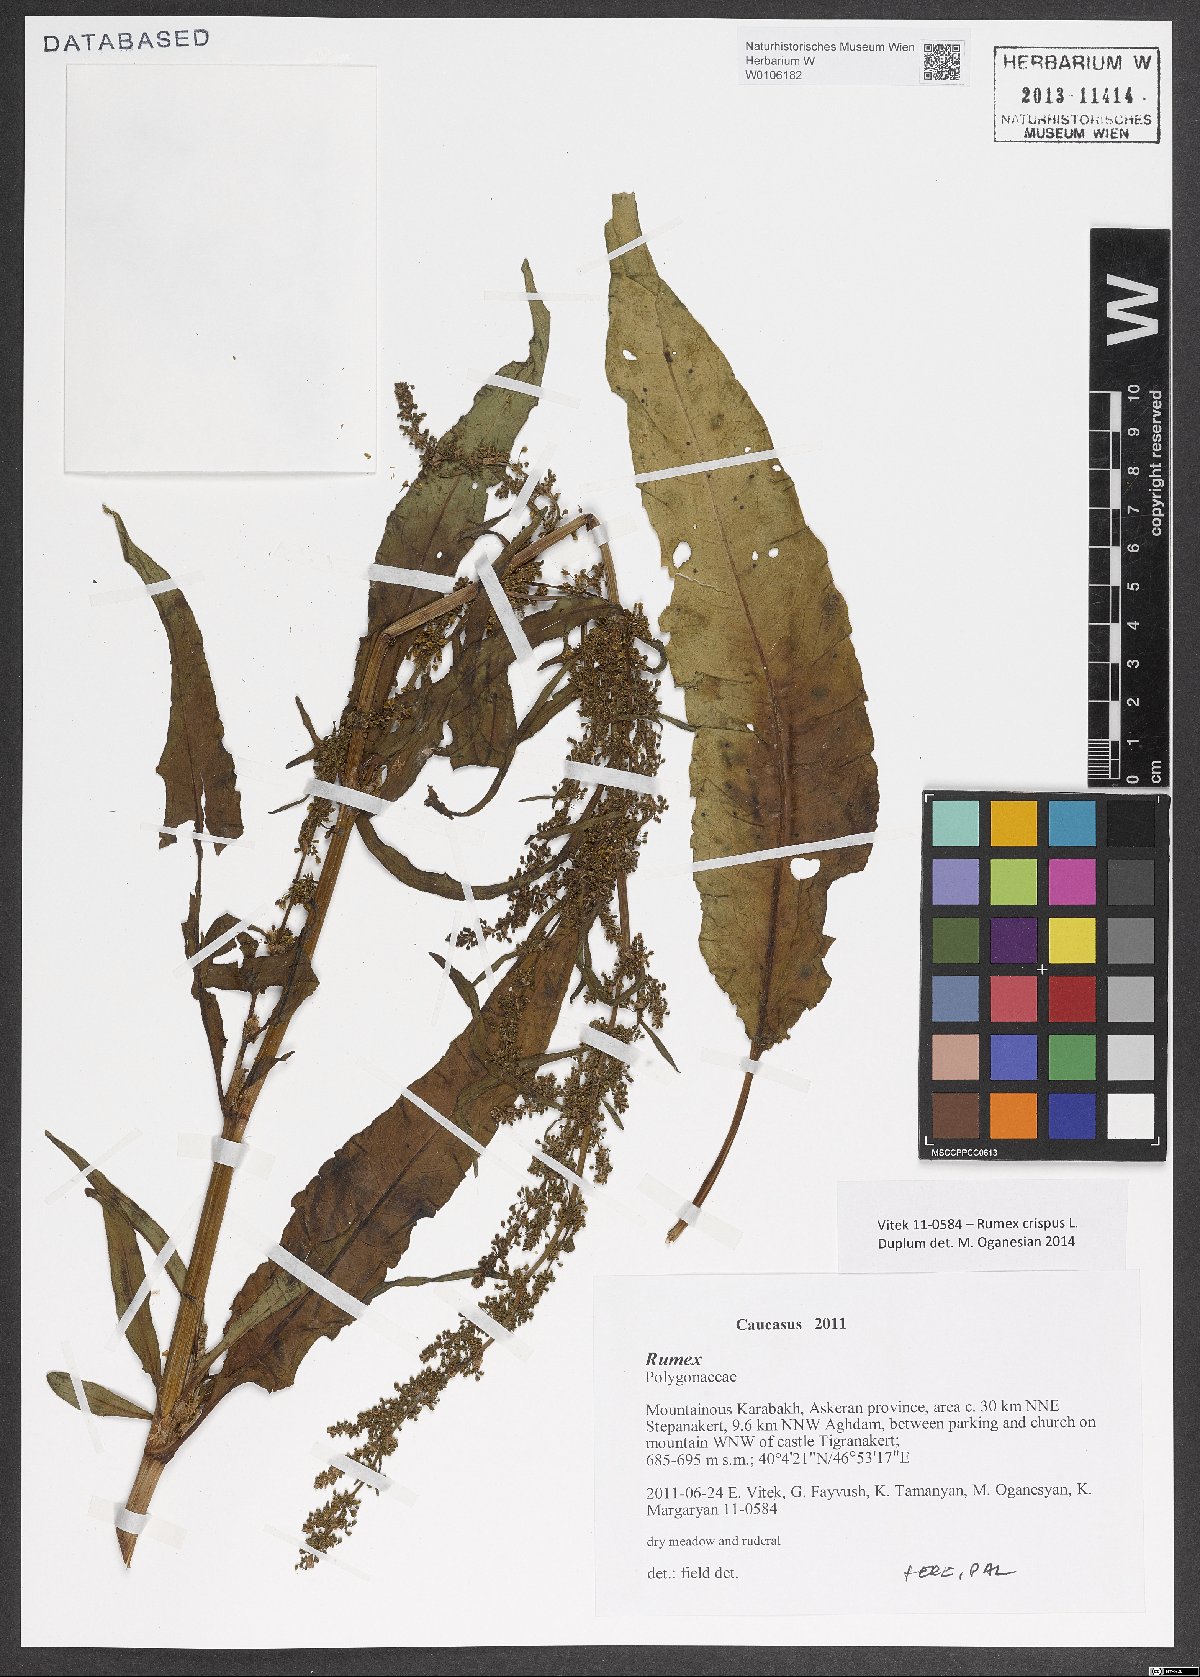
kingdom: Plantae
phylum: Tracheophyta
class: Magnoliopsida
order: Caryophyllales
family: Polygonaceae
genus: Rumex
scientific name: Rumex crispus
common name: Curled dock
